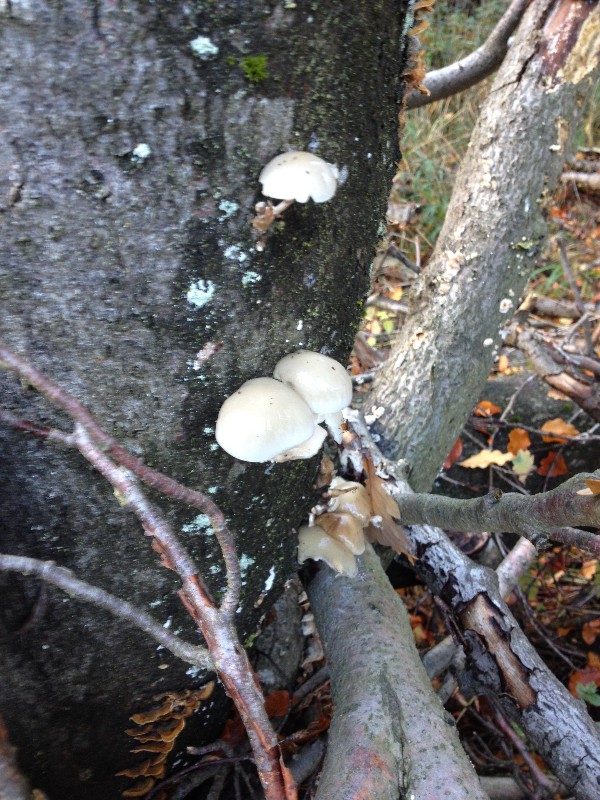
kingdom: Fungi
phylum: Basidiomycota
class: Agaricomycetes
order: Agaricales
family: Physalacriaceae
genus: Mucidula
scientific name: Mucidula mucida
